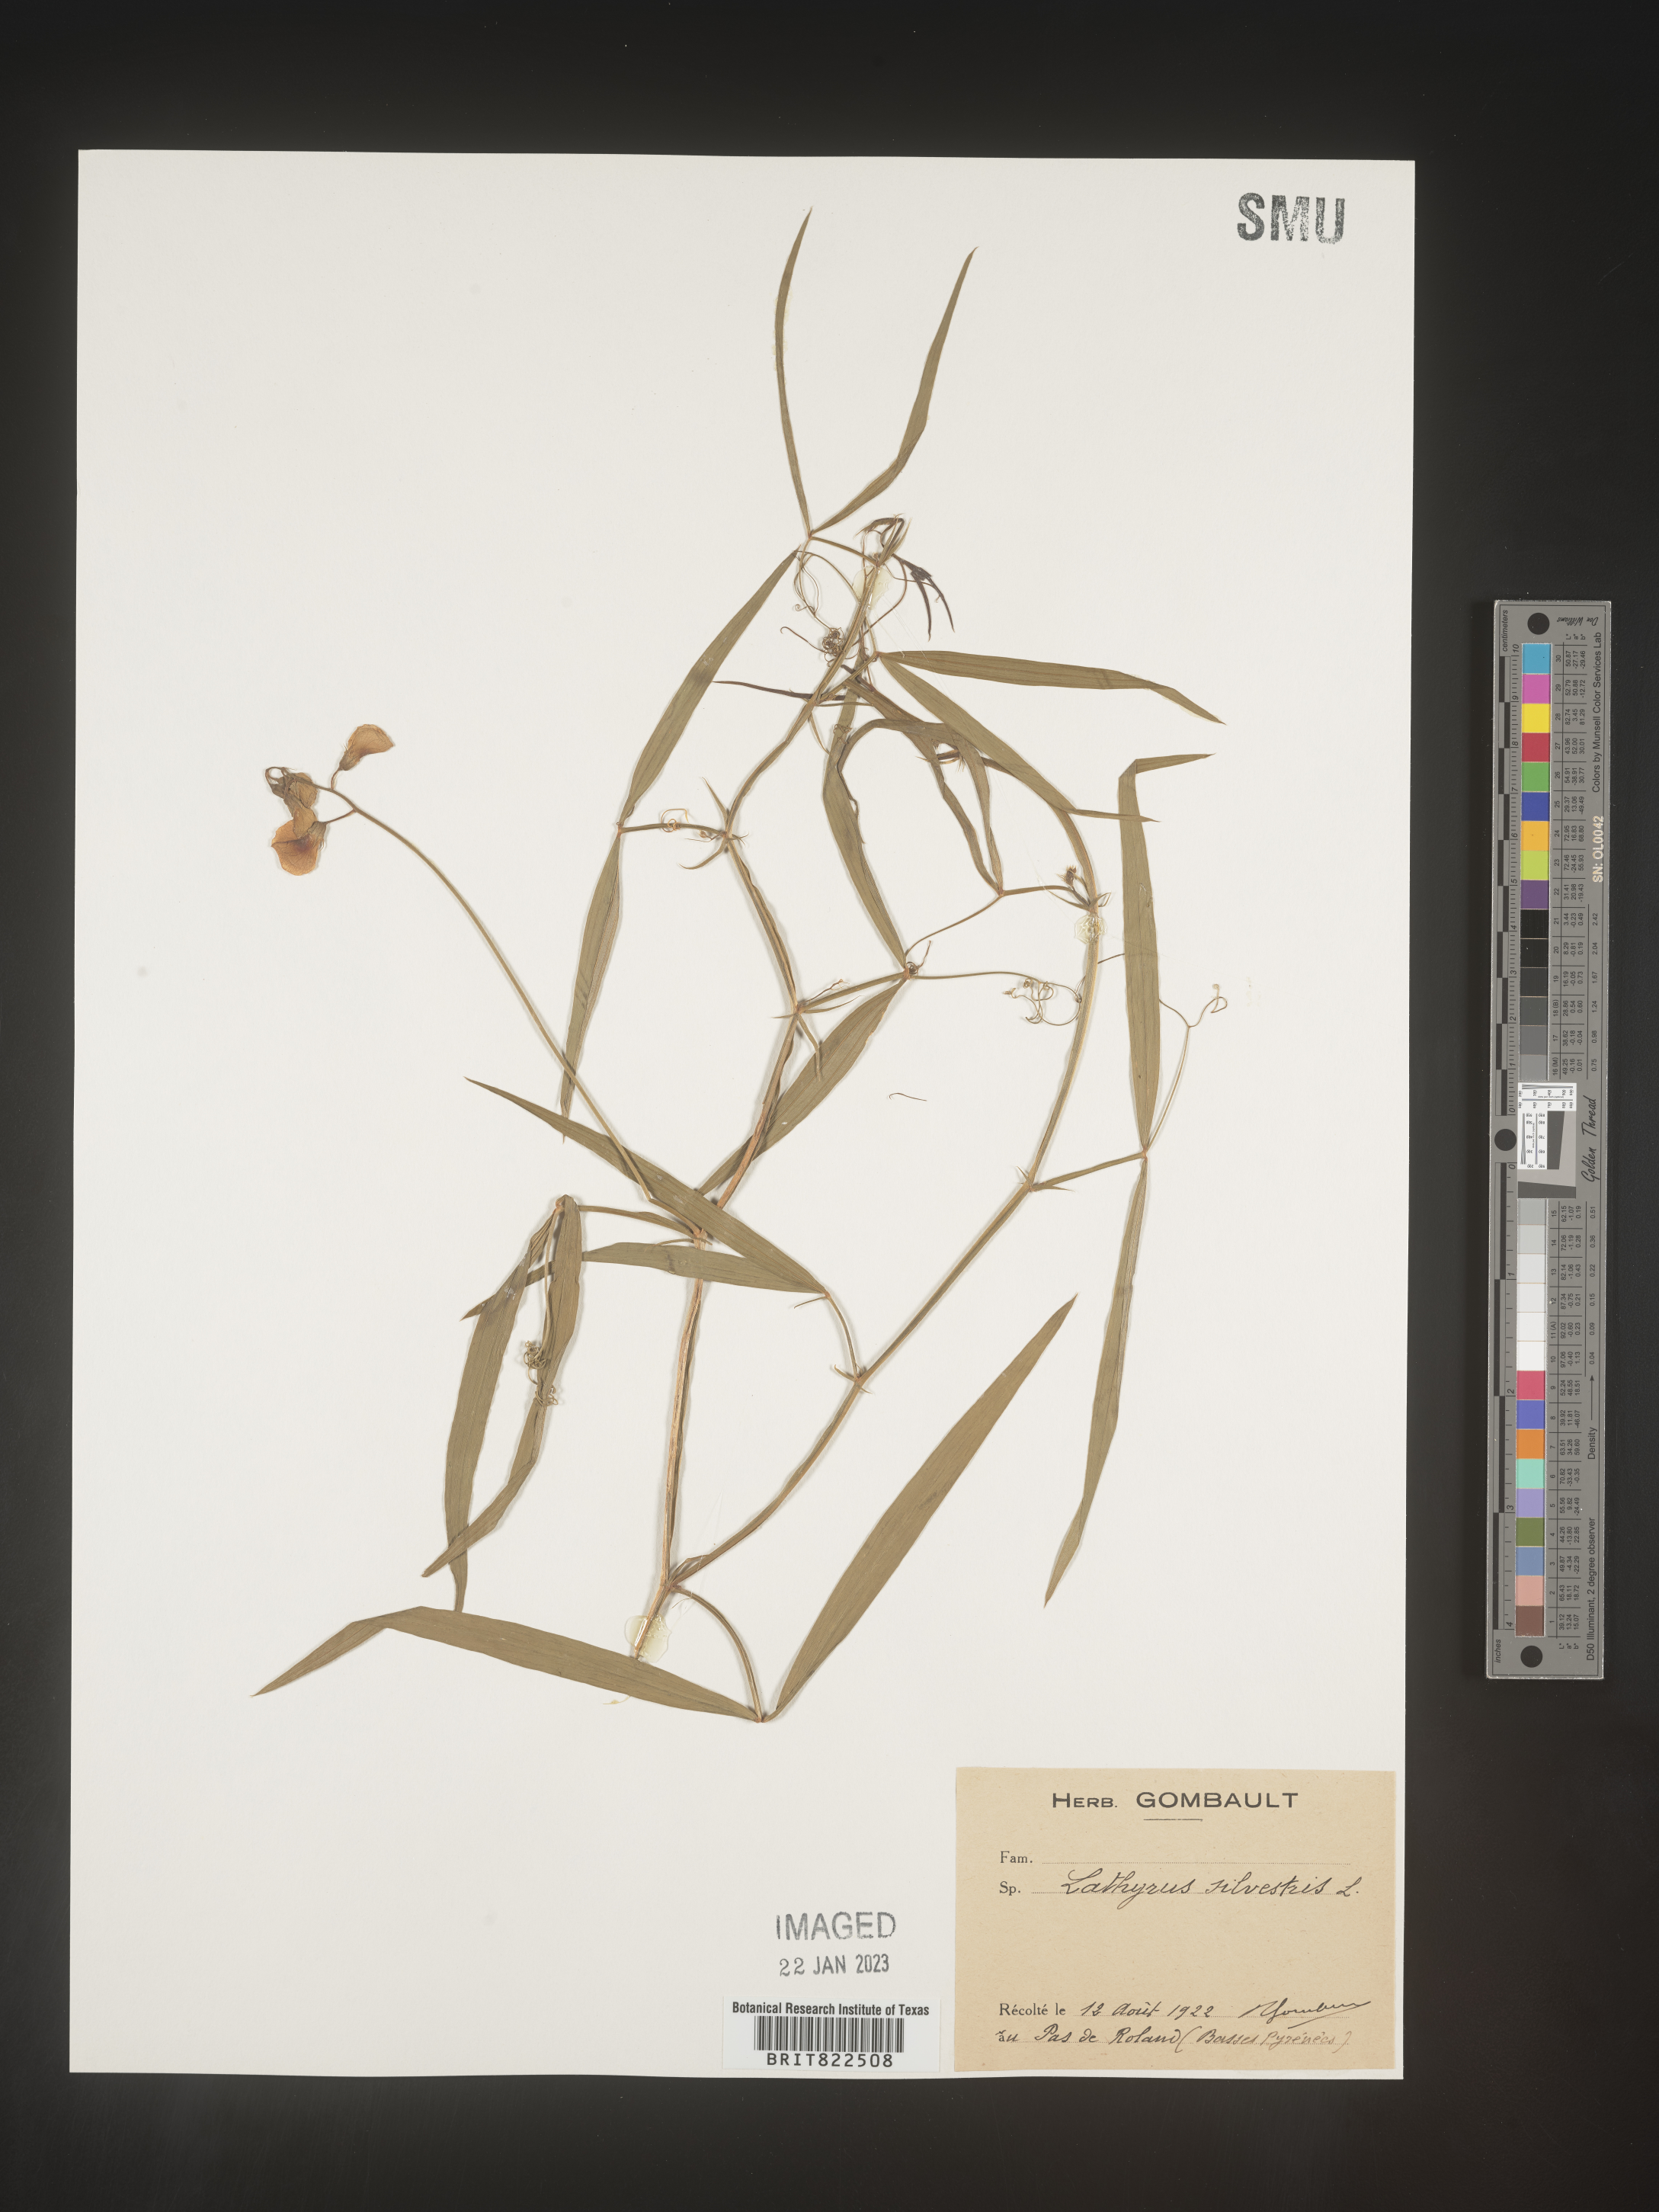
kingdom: Plantae
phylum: Tracheophyta
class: Magnoliopsida
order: Fabales
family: Fabaceae
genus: Lathyrus
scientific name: Lathyrus
